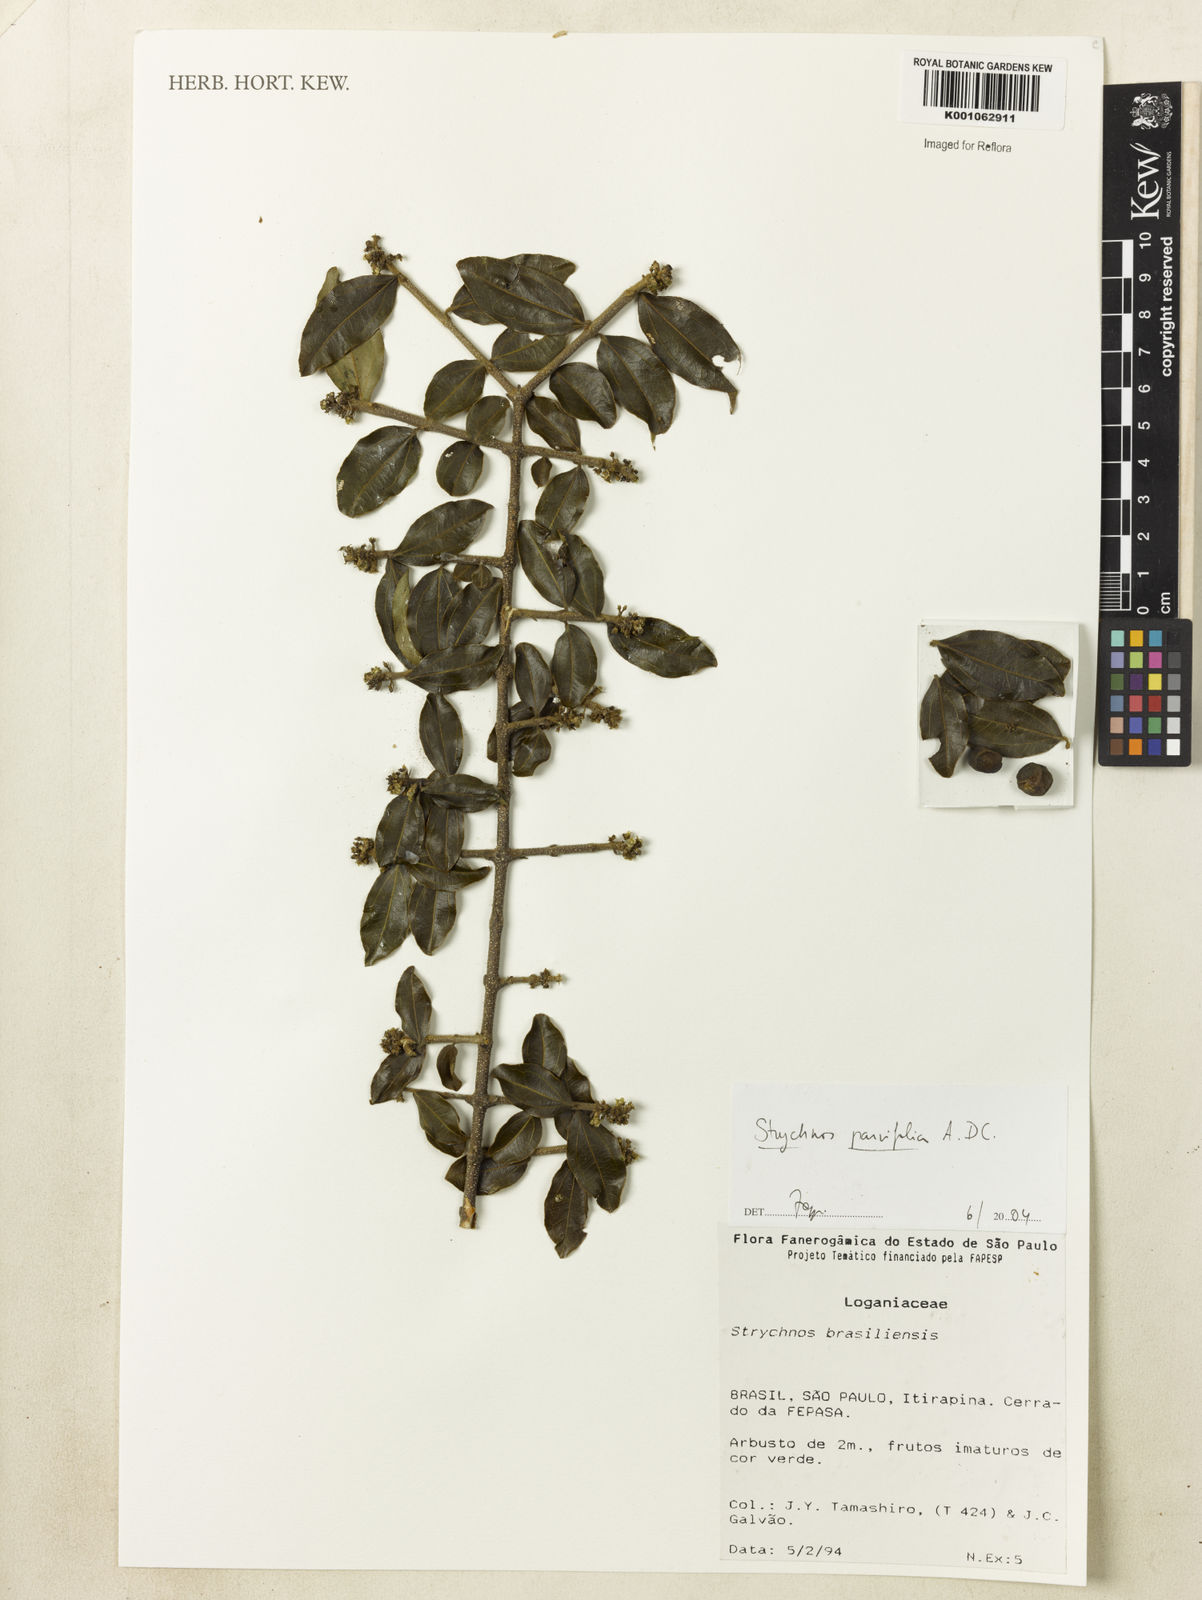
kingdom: Plantae
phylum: Tracheophyta
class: Magnoliopsida
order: Gentianales
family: Loganiaceae
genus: Strychnos
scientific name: Strychnos parvifolia
